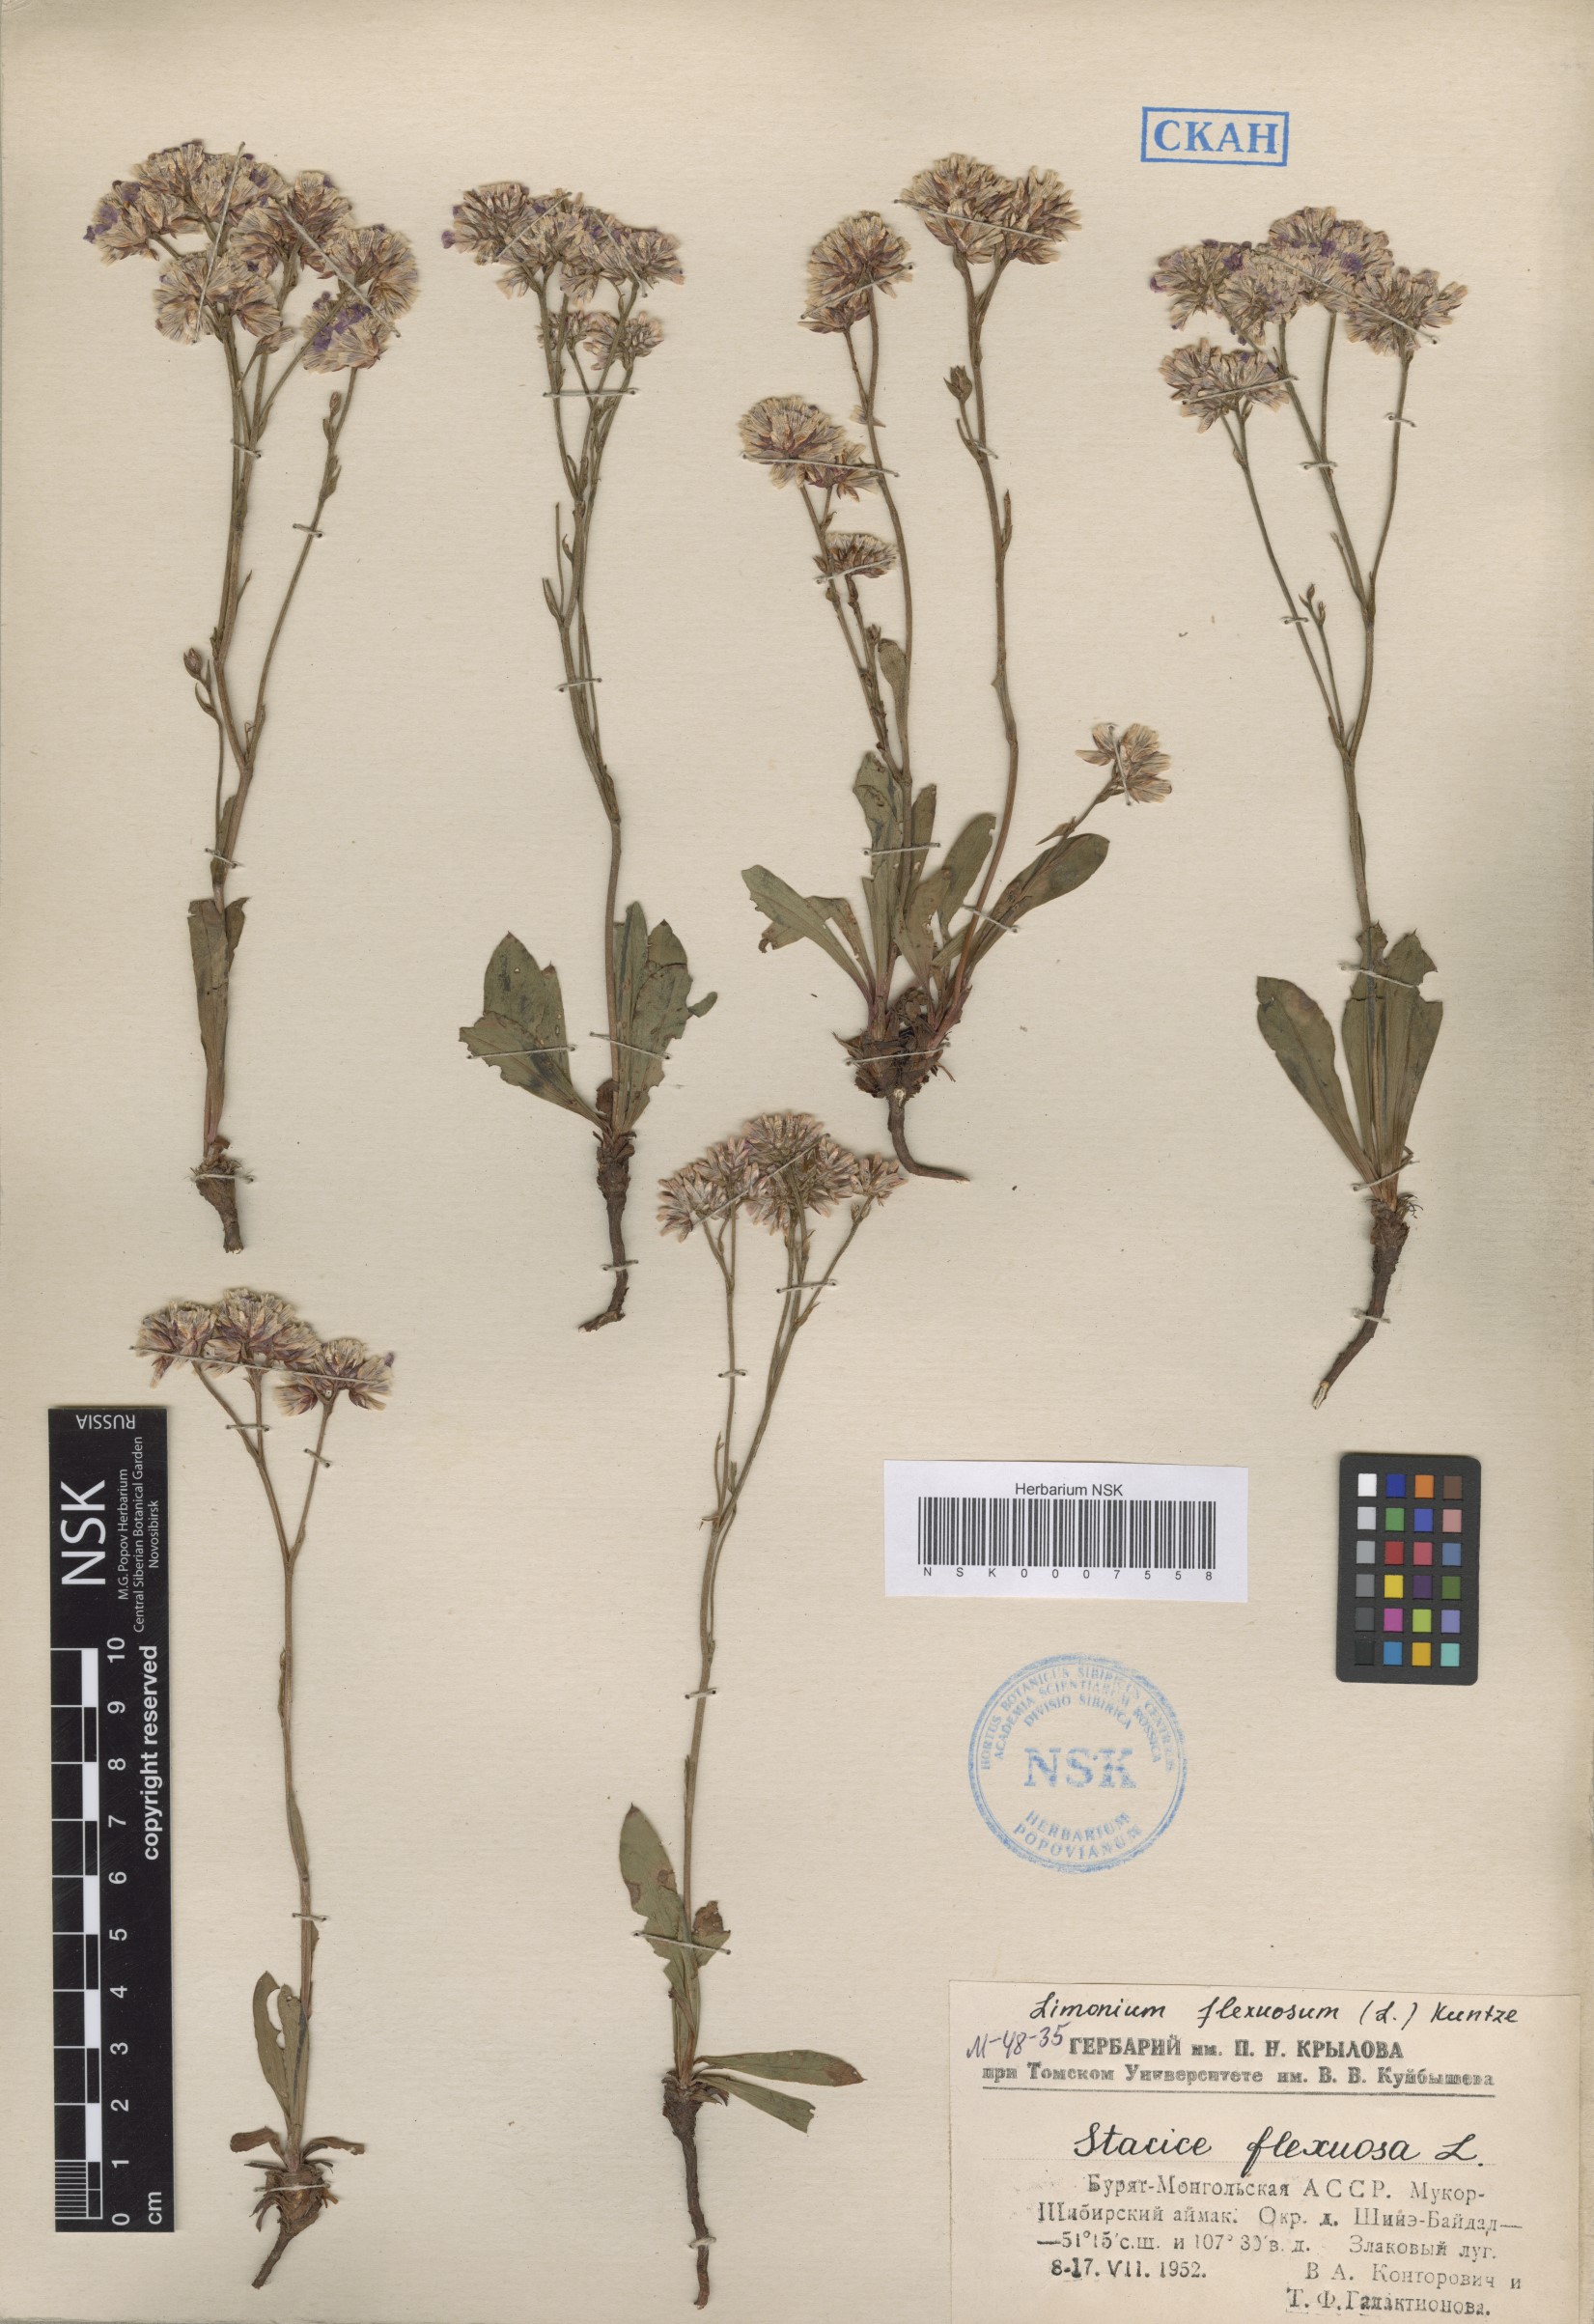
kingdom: Plantae
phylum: Tracheophyta
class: Magnoliopsida
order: Caryophyllales
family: Plumbaginaceae
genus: Limonium
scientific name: Limonium flexuosum
